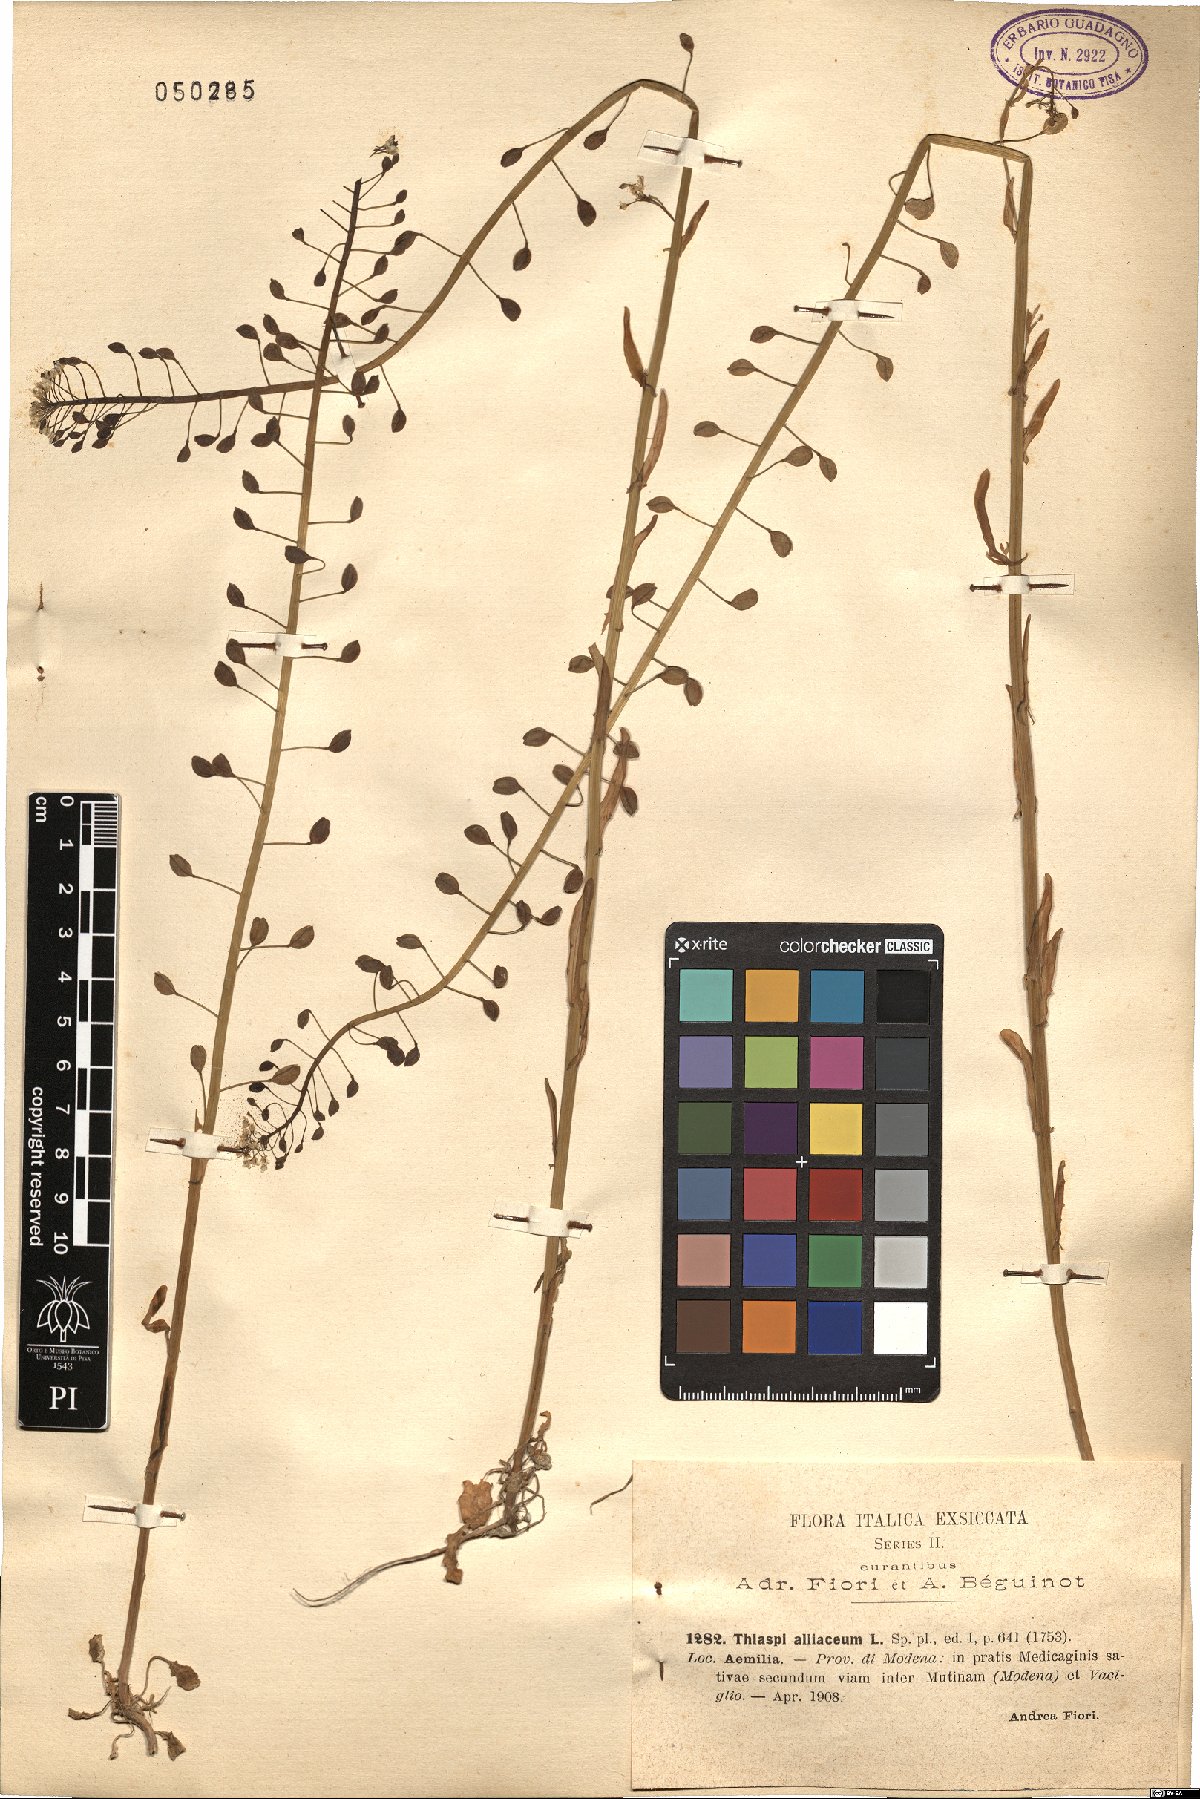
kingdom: Plantae
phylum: Tracheophyta
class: Magnoliopsida
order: Brassicales
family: Brassicaceae
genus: Mummenhoffia
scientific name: Mummenhoffia alliacea
